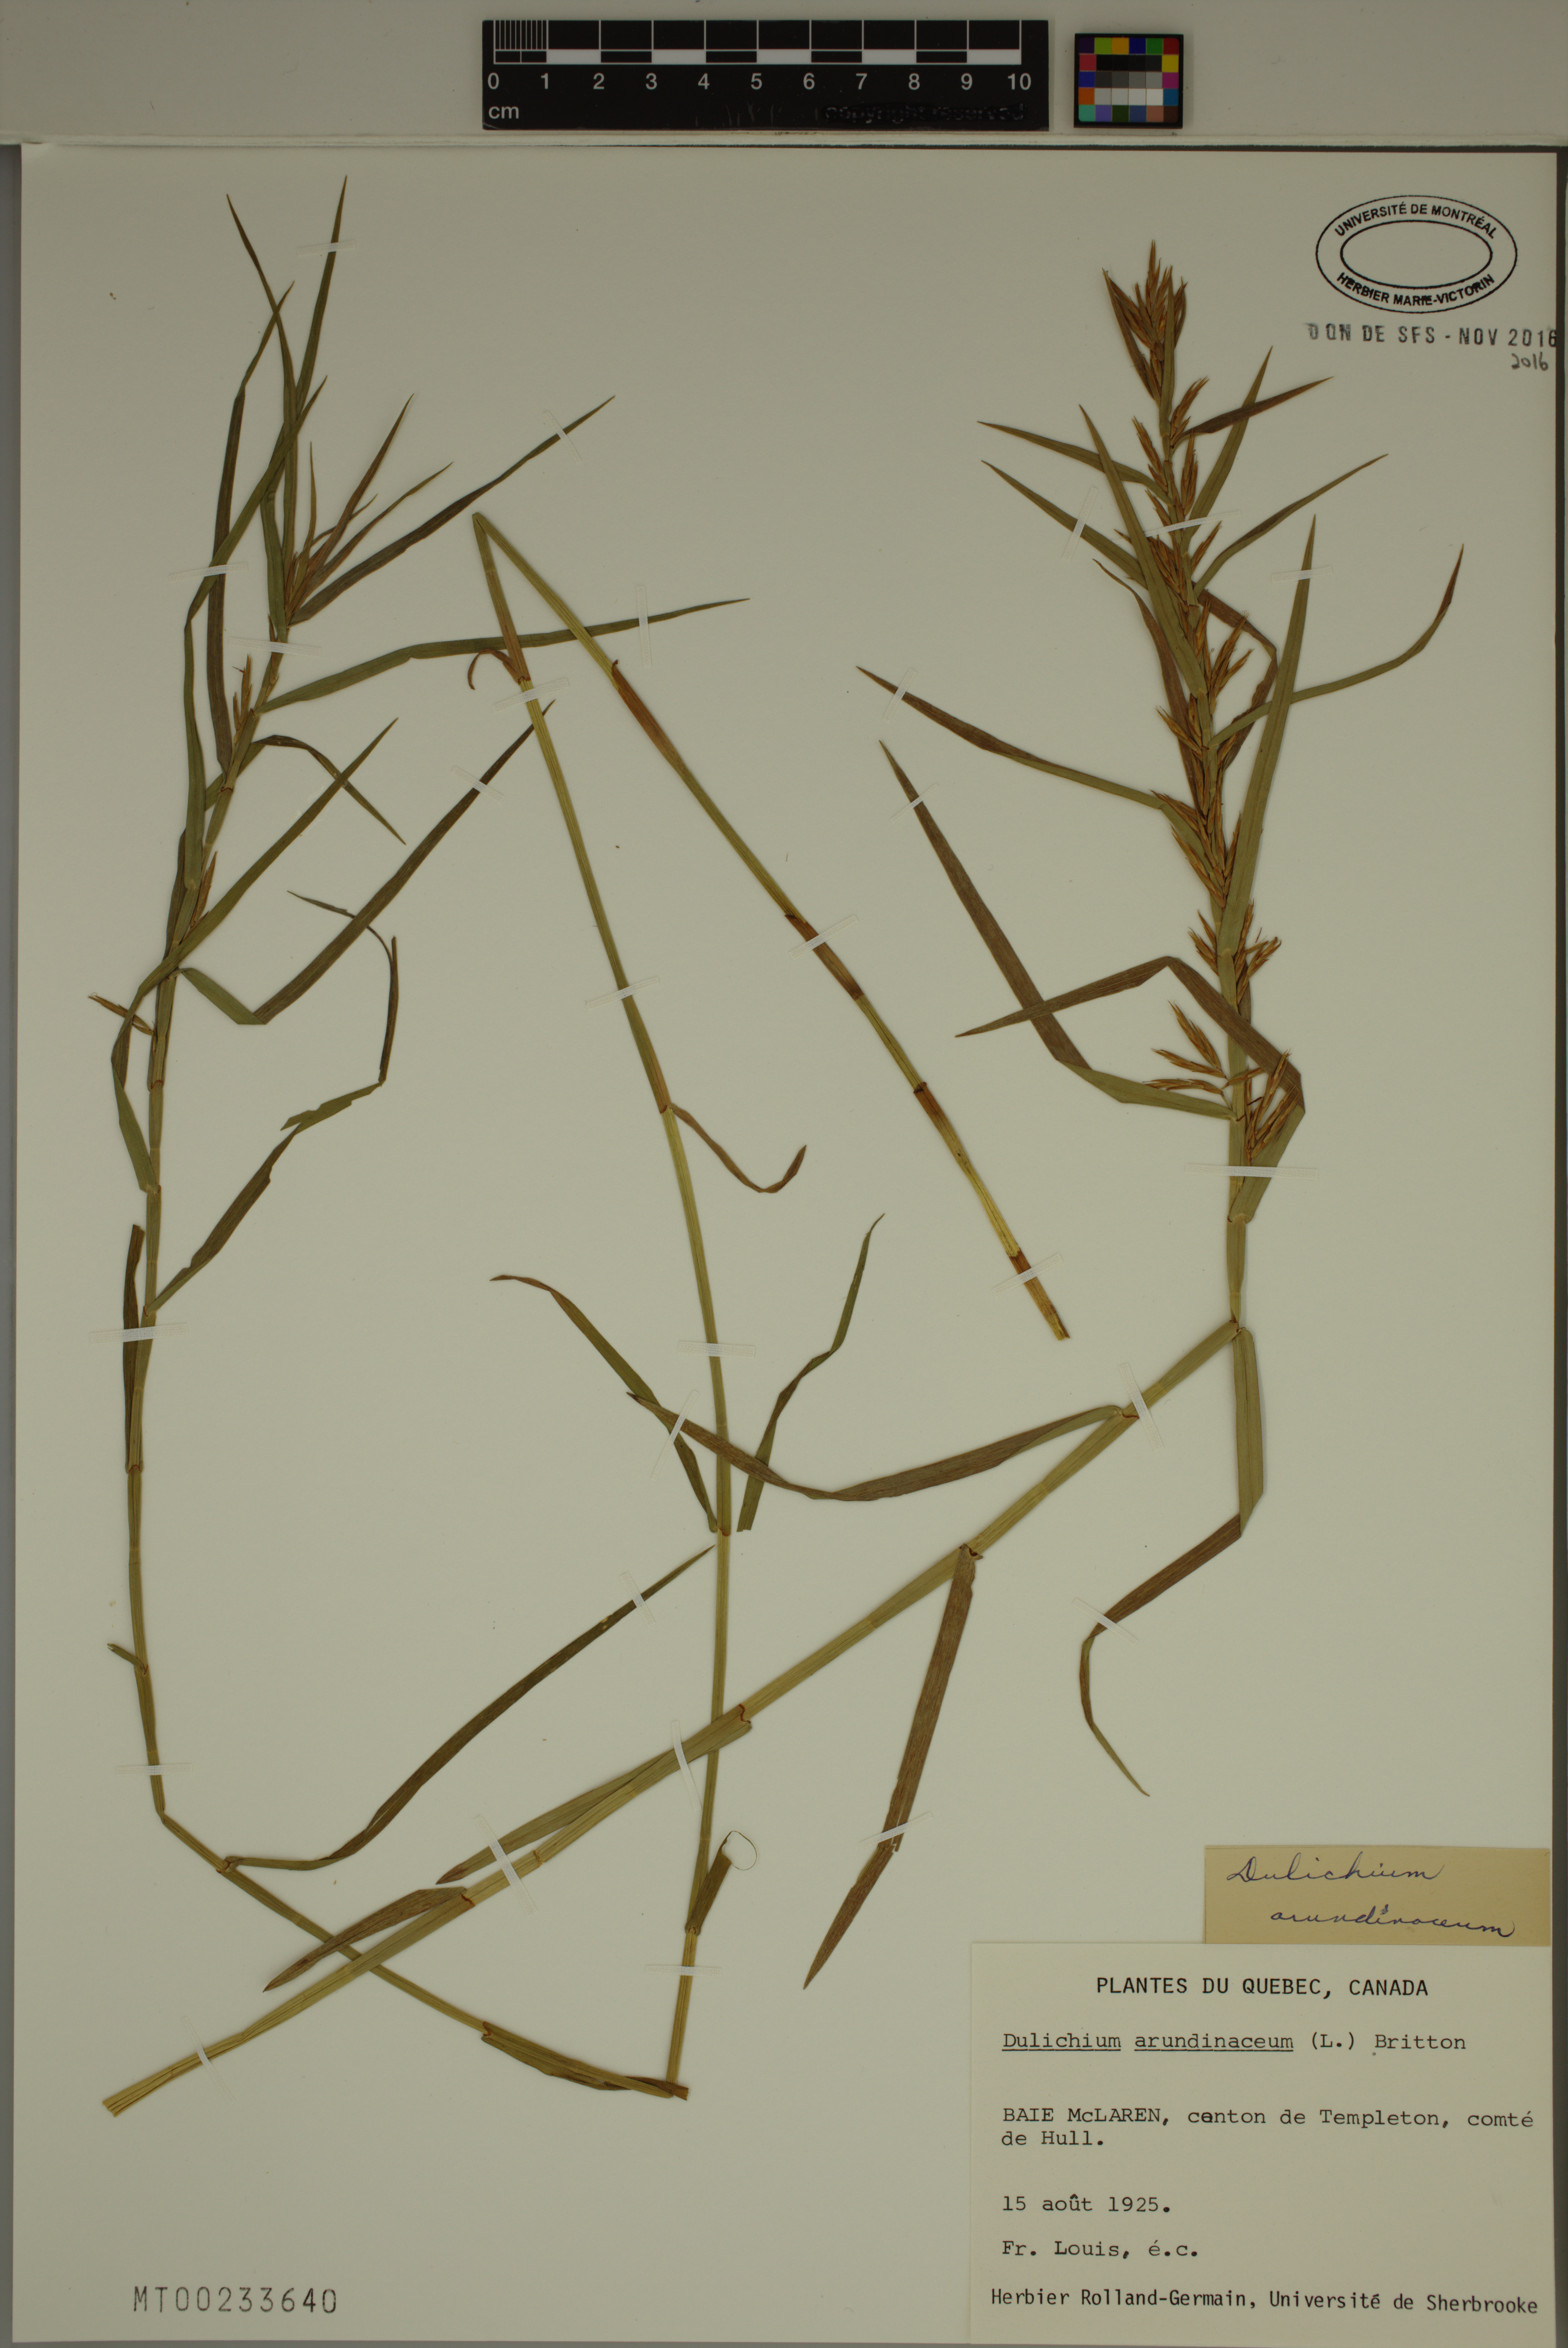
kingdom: Plantae
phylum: Tracheophyta
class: Liliopsida
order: Poales
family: Cyperaceae
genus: Dulichium
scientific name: Dulichium arundinaceum
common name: Three-way sedge
